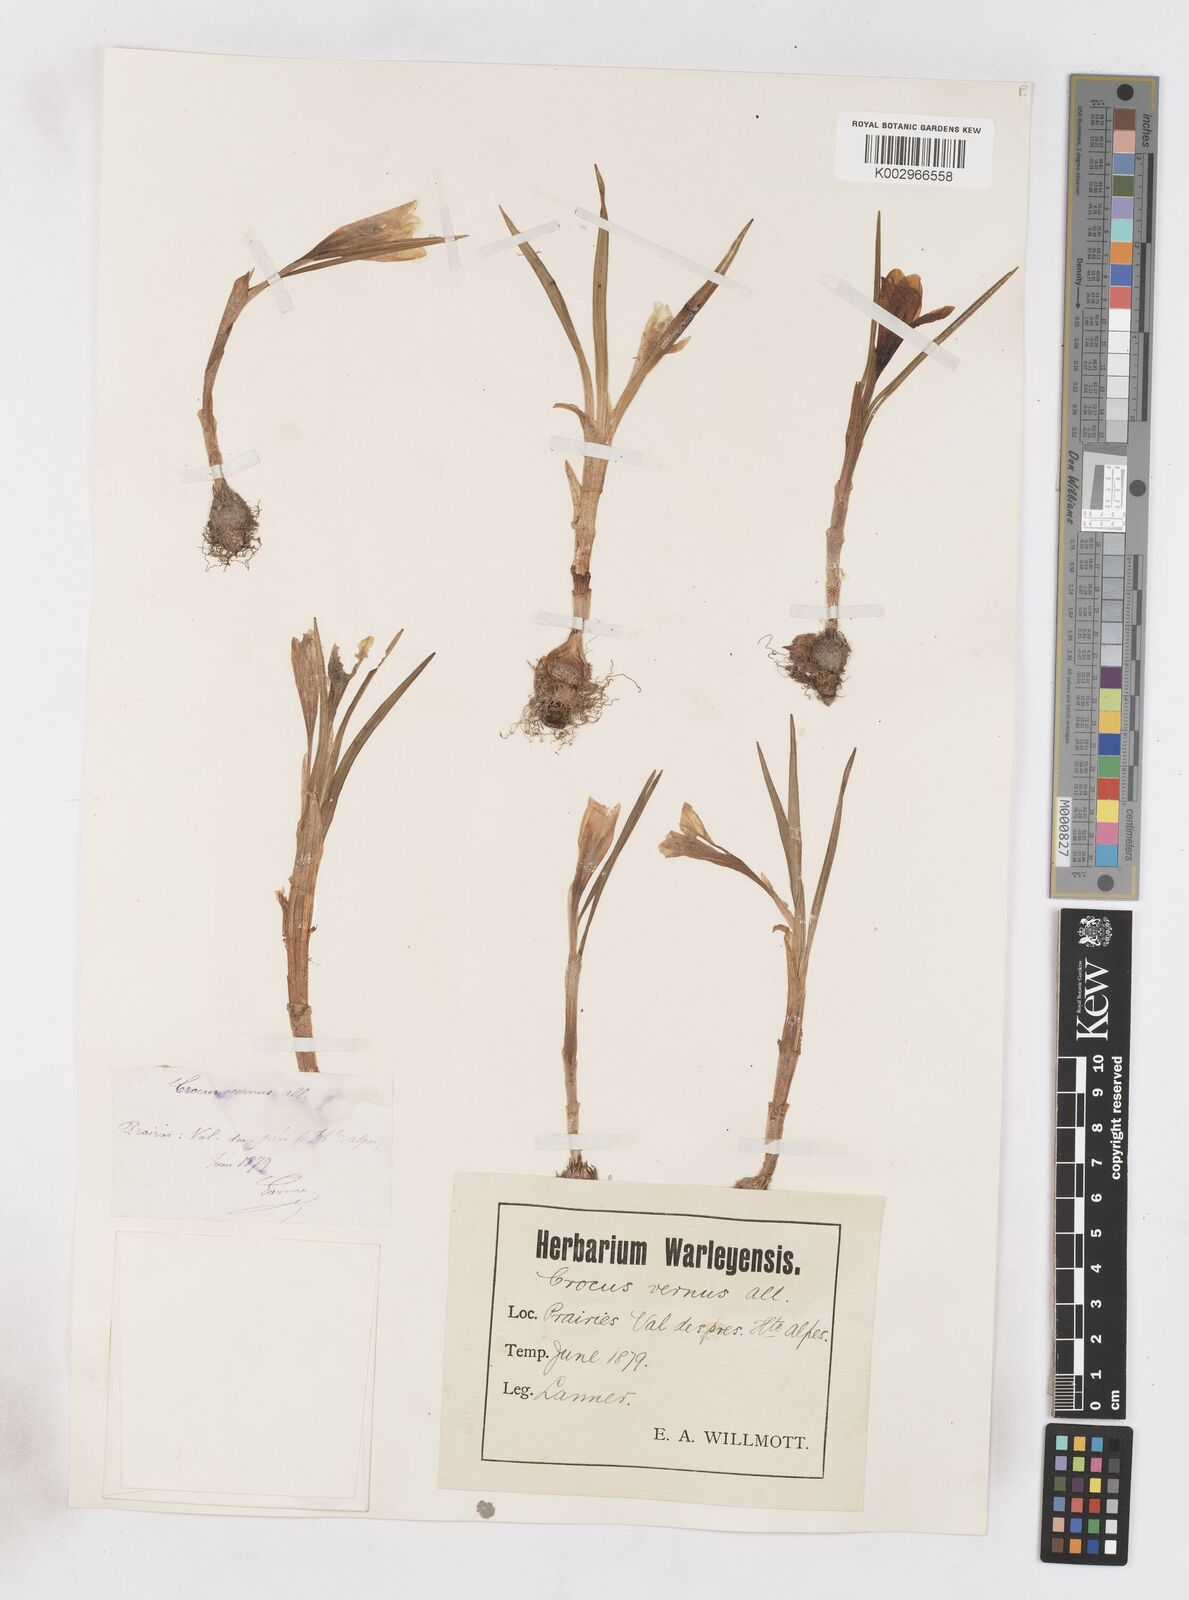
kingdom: Plantae
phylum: Tracheophyta
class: Liliopsida
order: Asparagales
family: Iridaceae
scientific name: Iridaceae
